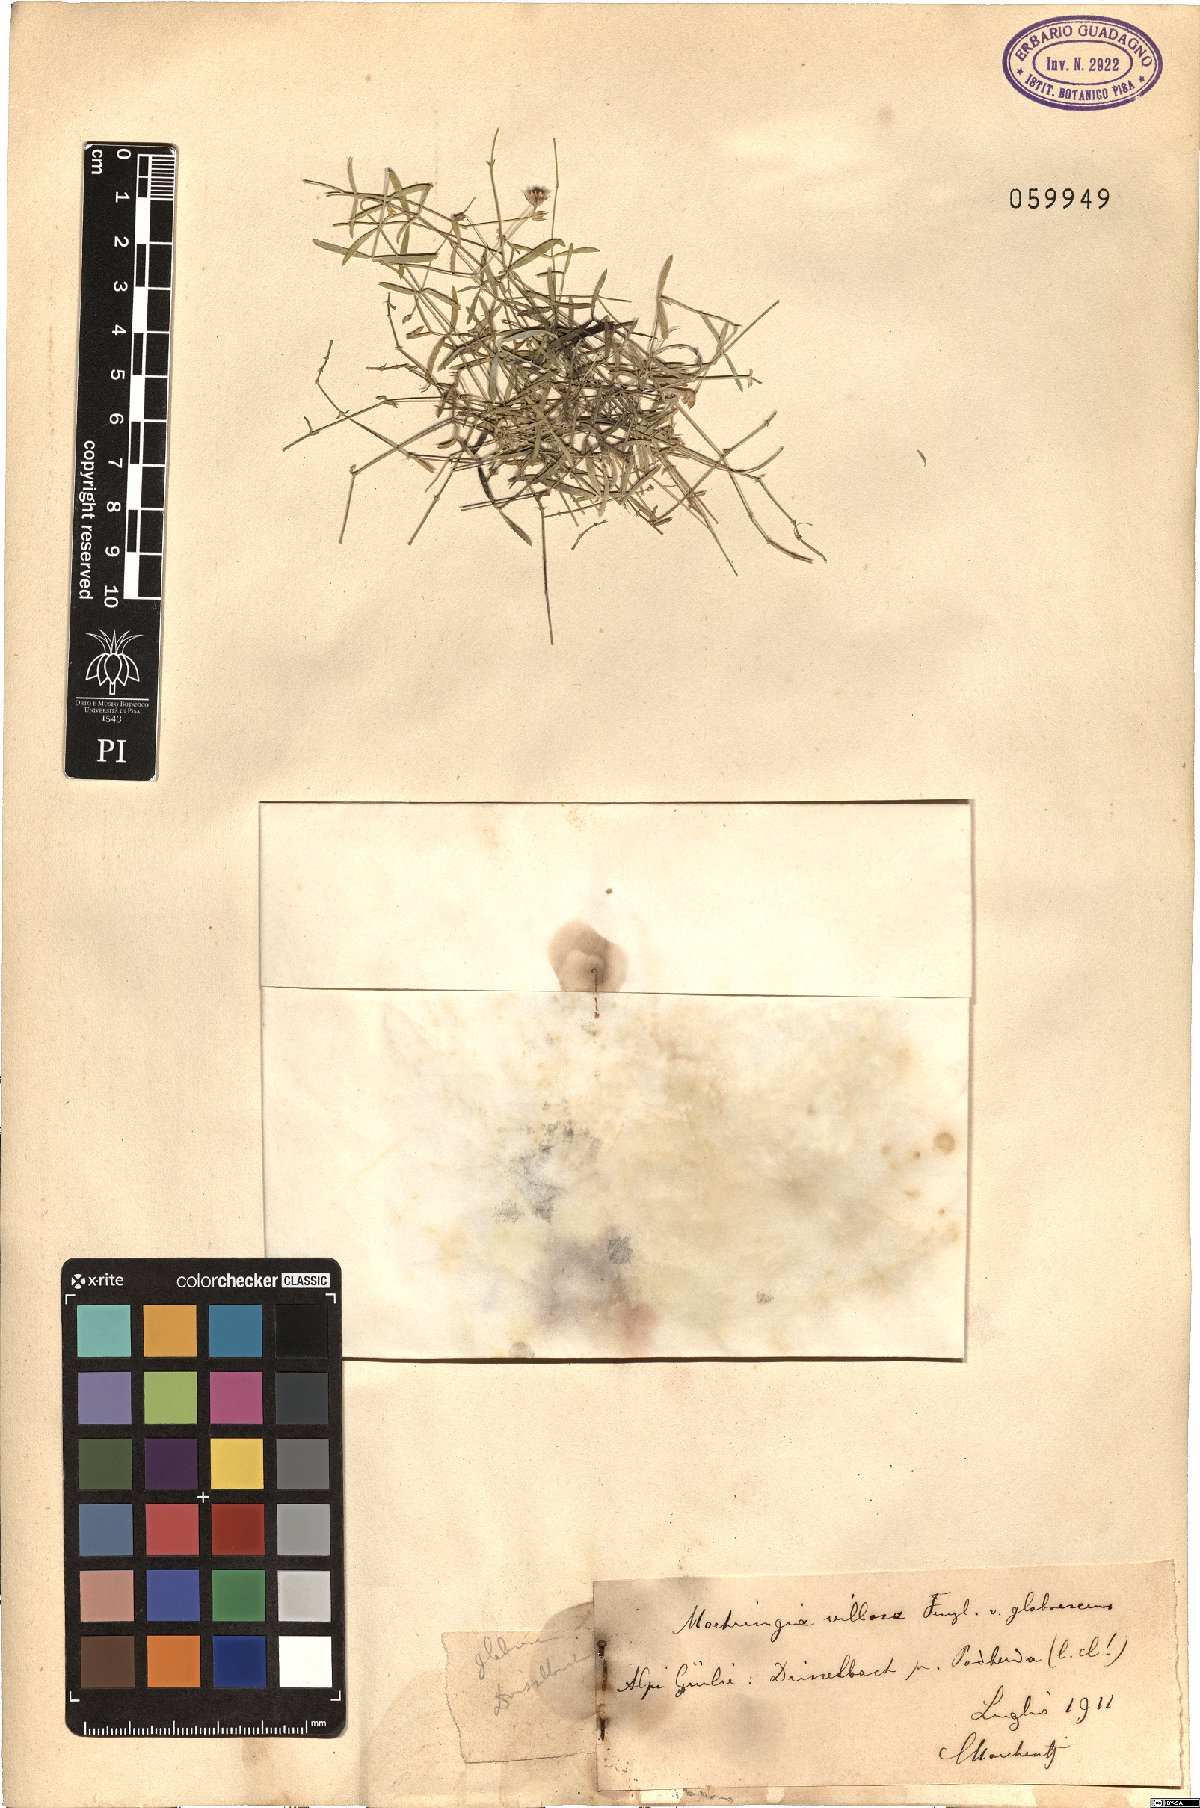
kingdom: Plantae
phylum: Tracheophyta
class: Magnoliopsida
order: Caryophyllales
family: Caryophyllaceae
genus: Moehringia
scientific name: Moehringia villosa
